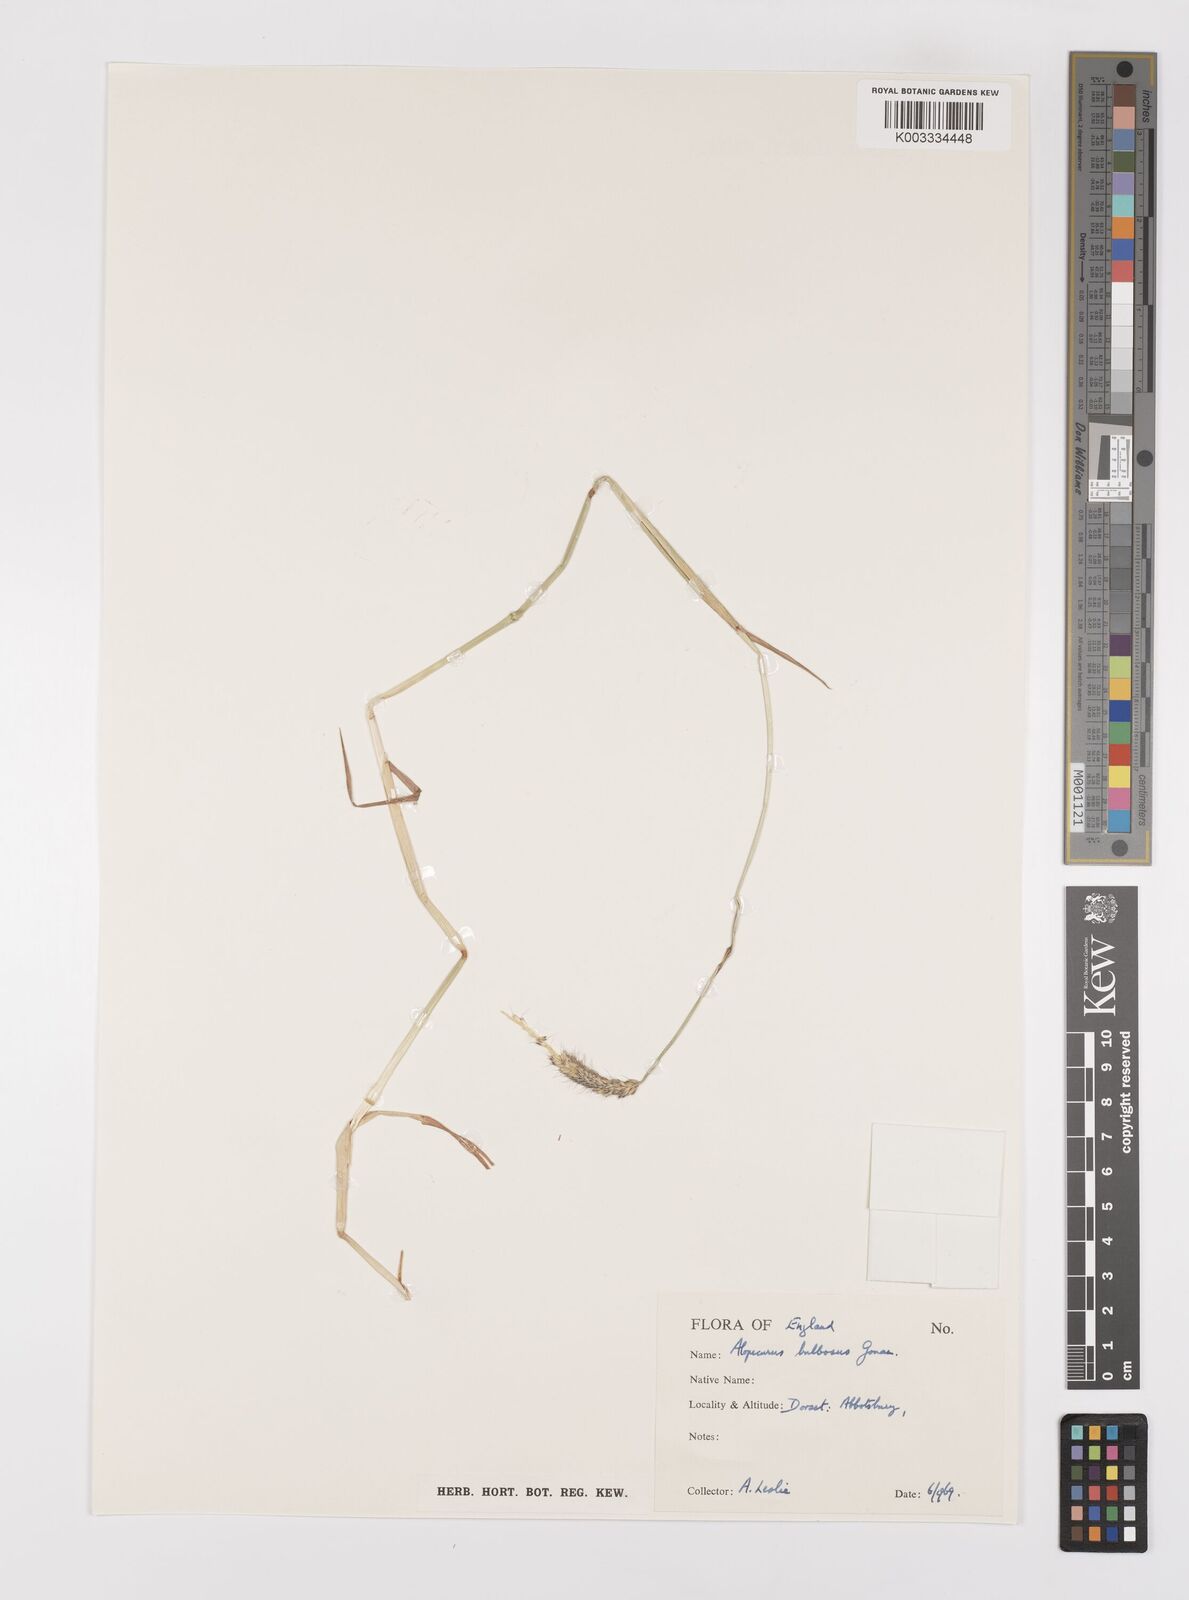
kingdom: Plantae
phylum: Tracheophyta
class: Liliopsida
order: Poales
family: Poaceae
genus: Alopecurus
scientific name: Alopecurus bulbosus
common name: Bulbous foxtail
